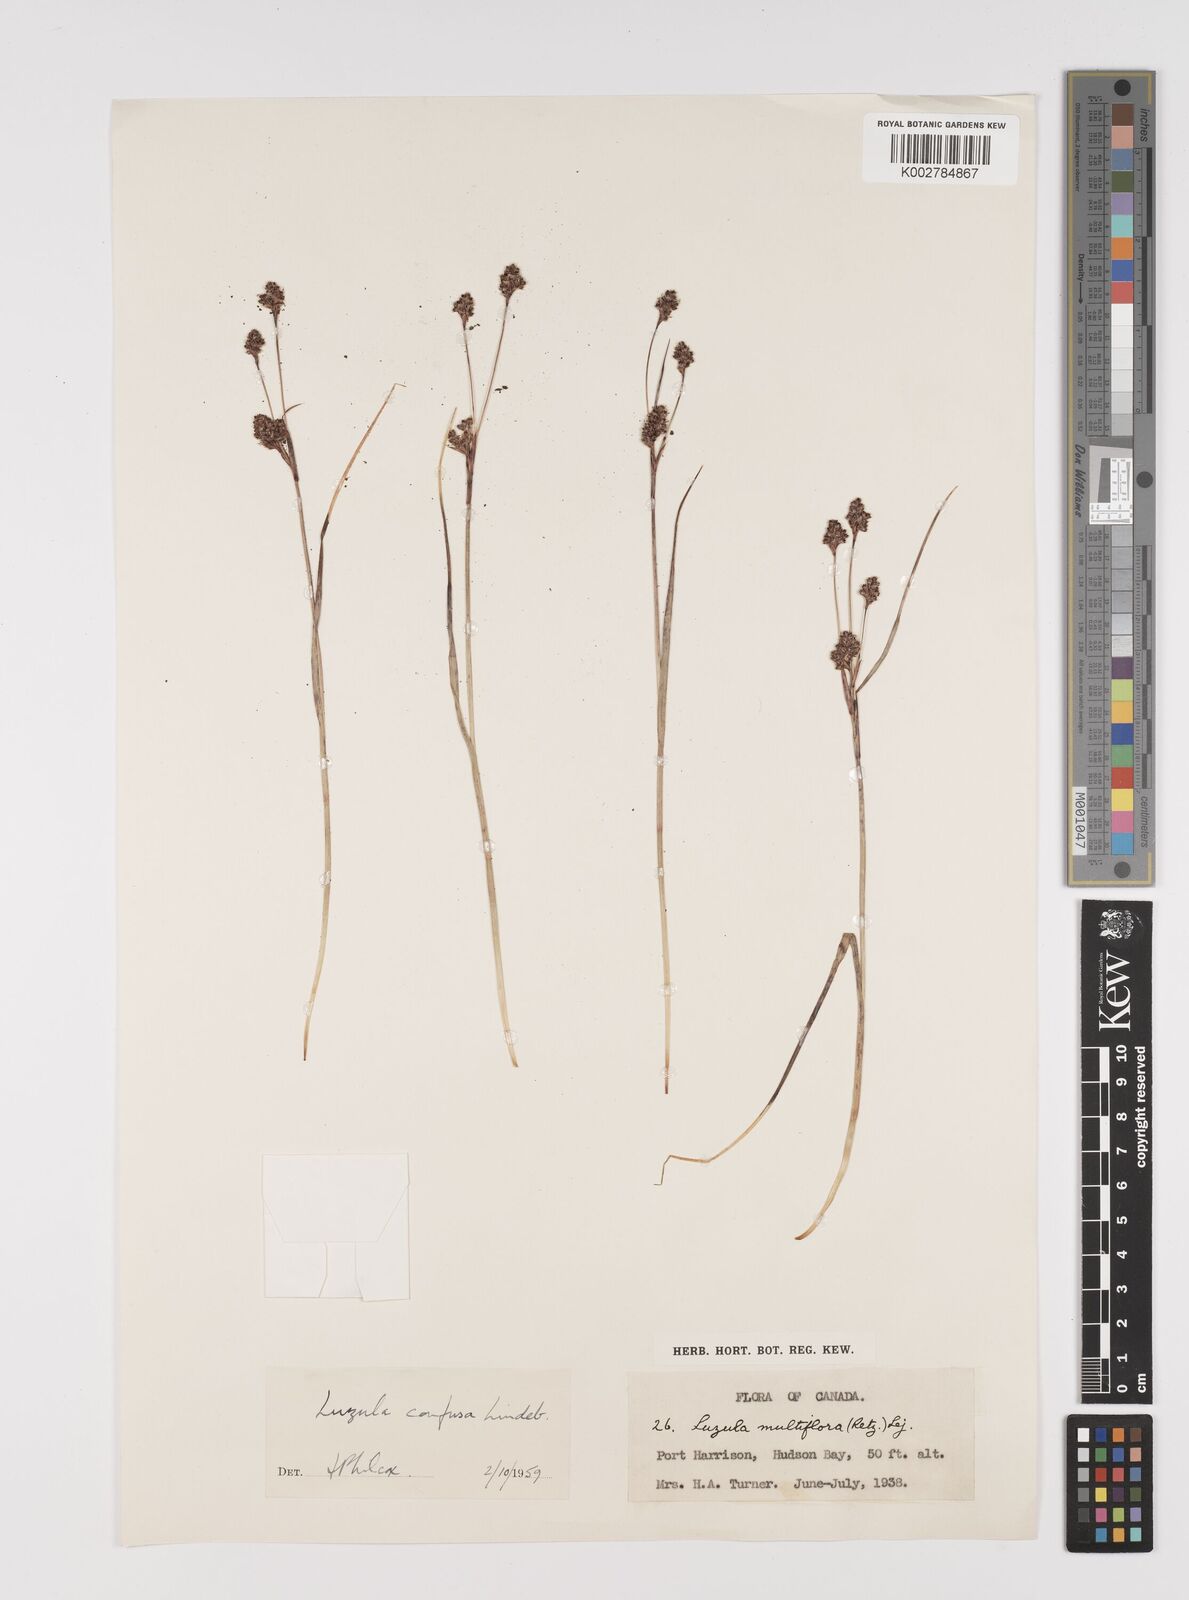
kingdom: Plantae
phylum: Tracheophyta
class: Liliopsida
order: Poales
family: Juncaceae
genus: Luzula
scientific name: Luzula confusa
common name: Northern wood rush
